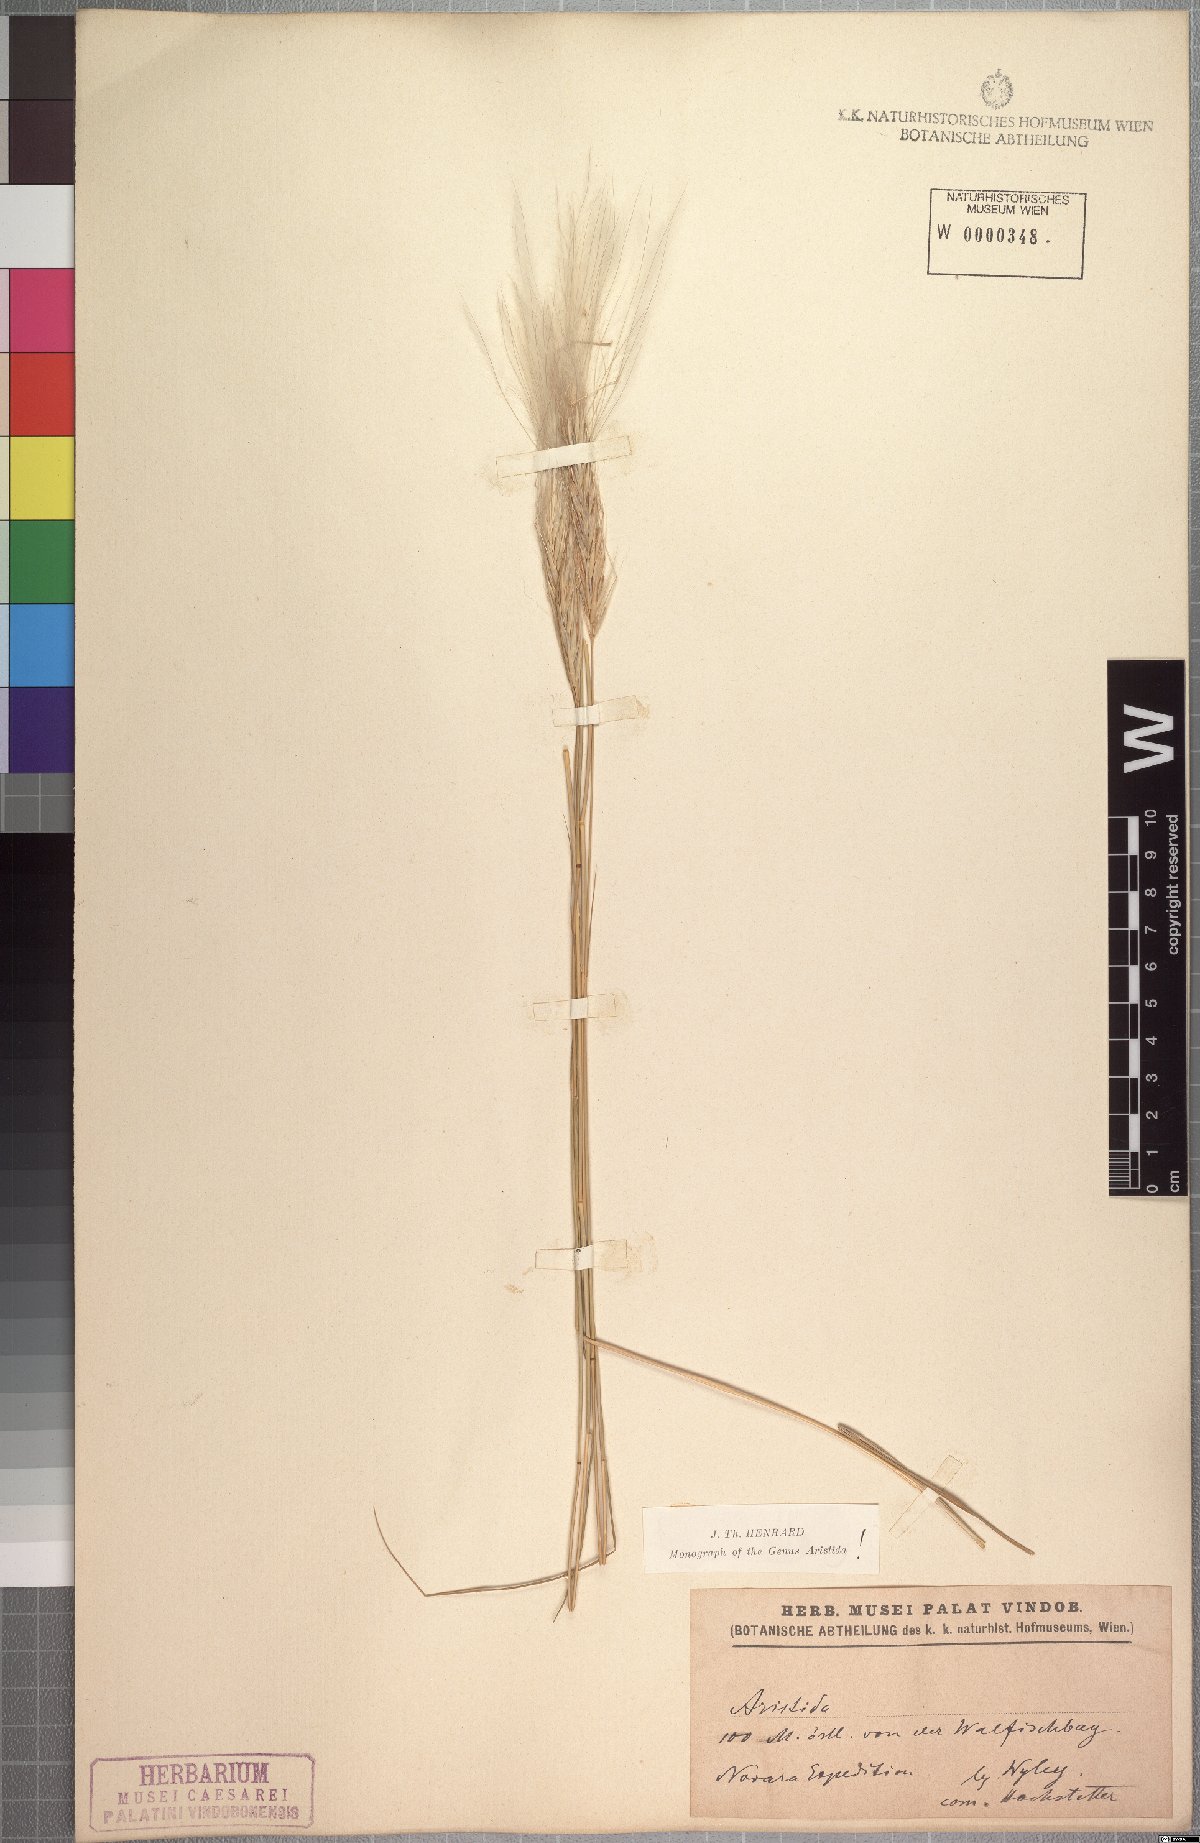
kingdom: Plantae
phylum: Tracheophyta
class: Liliopsida
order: Poales
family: Poaceae
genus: Stipagrostis
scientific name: Stipagrostis hochstetteriana
